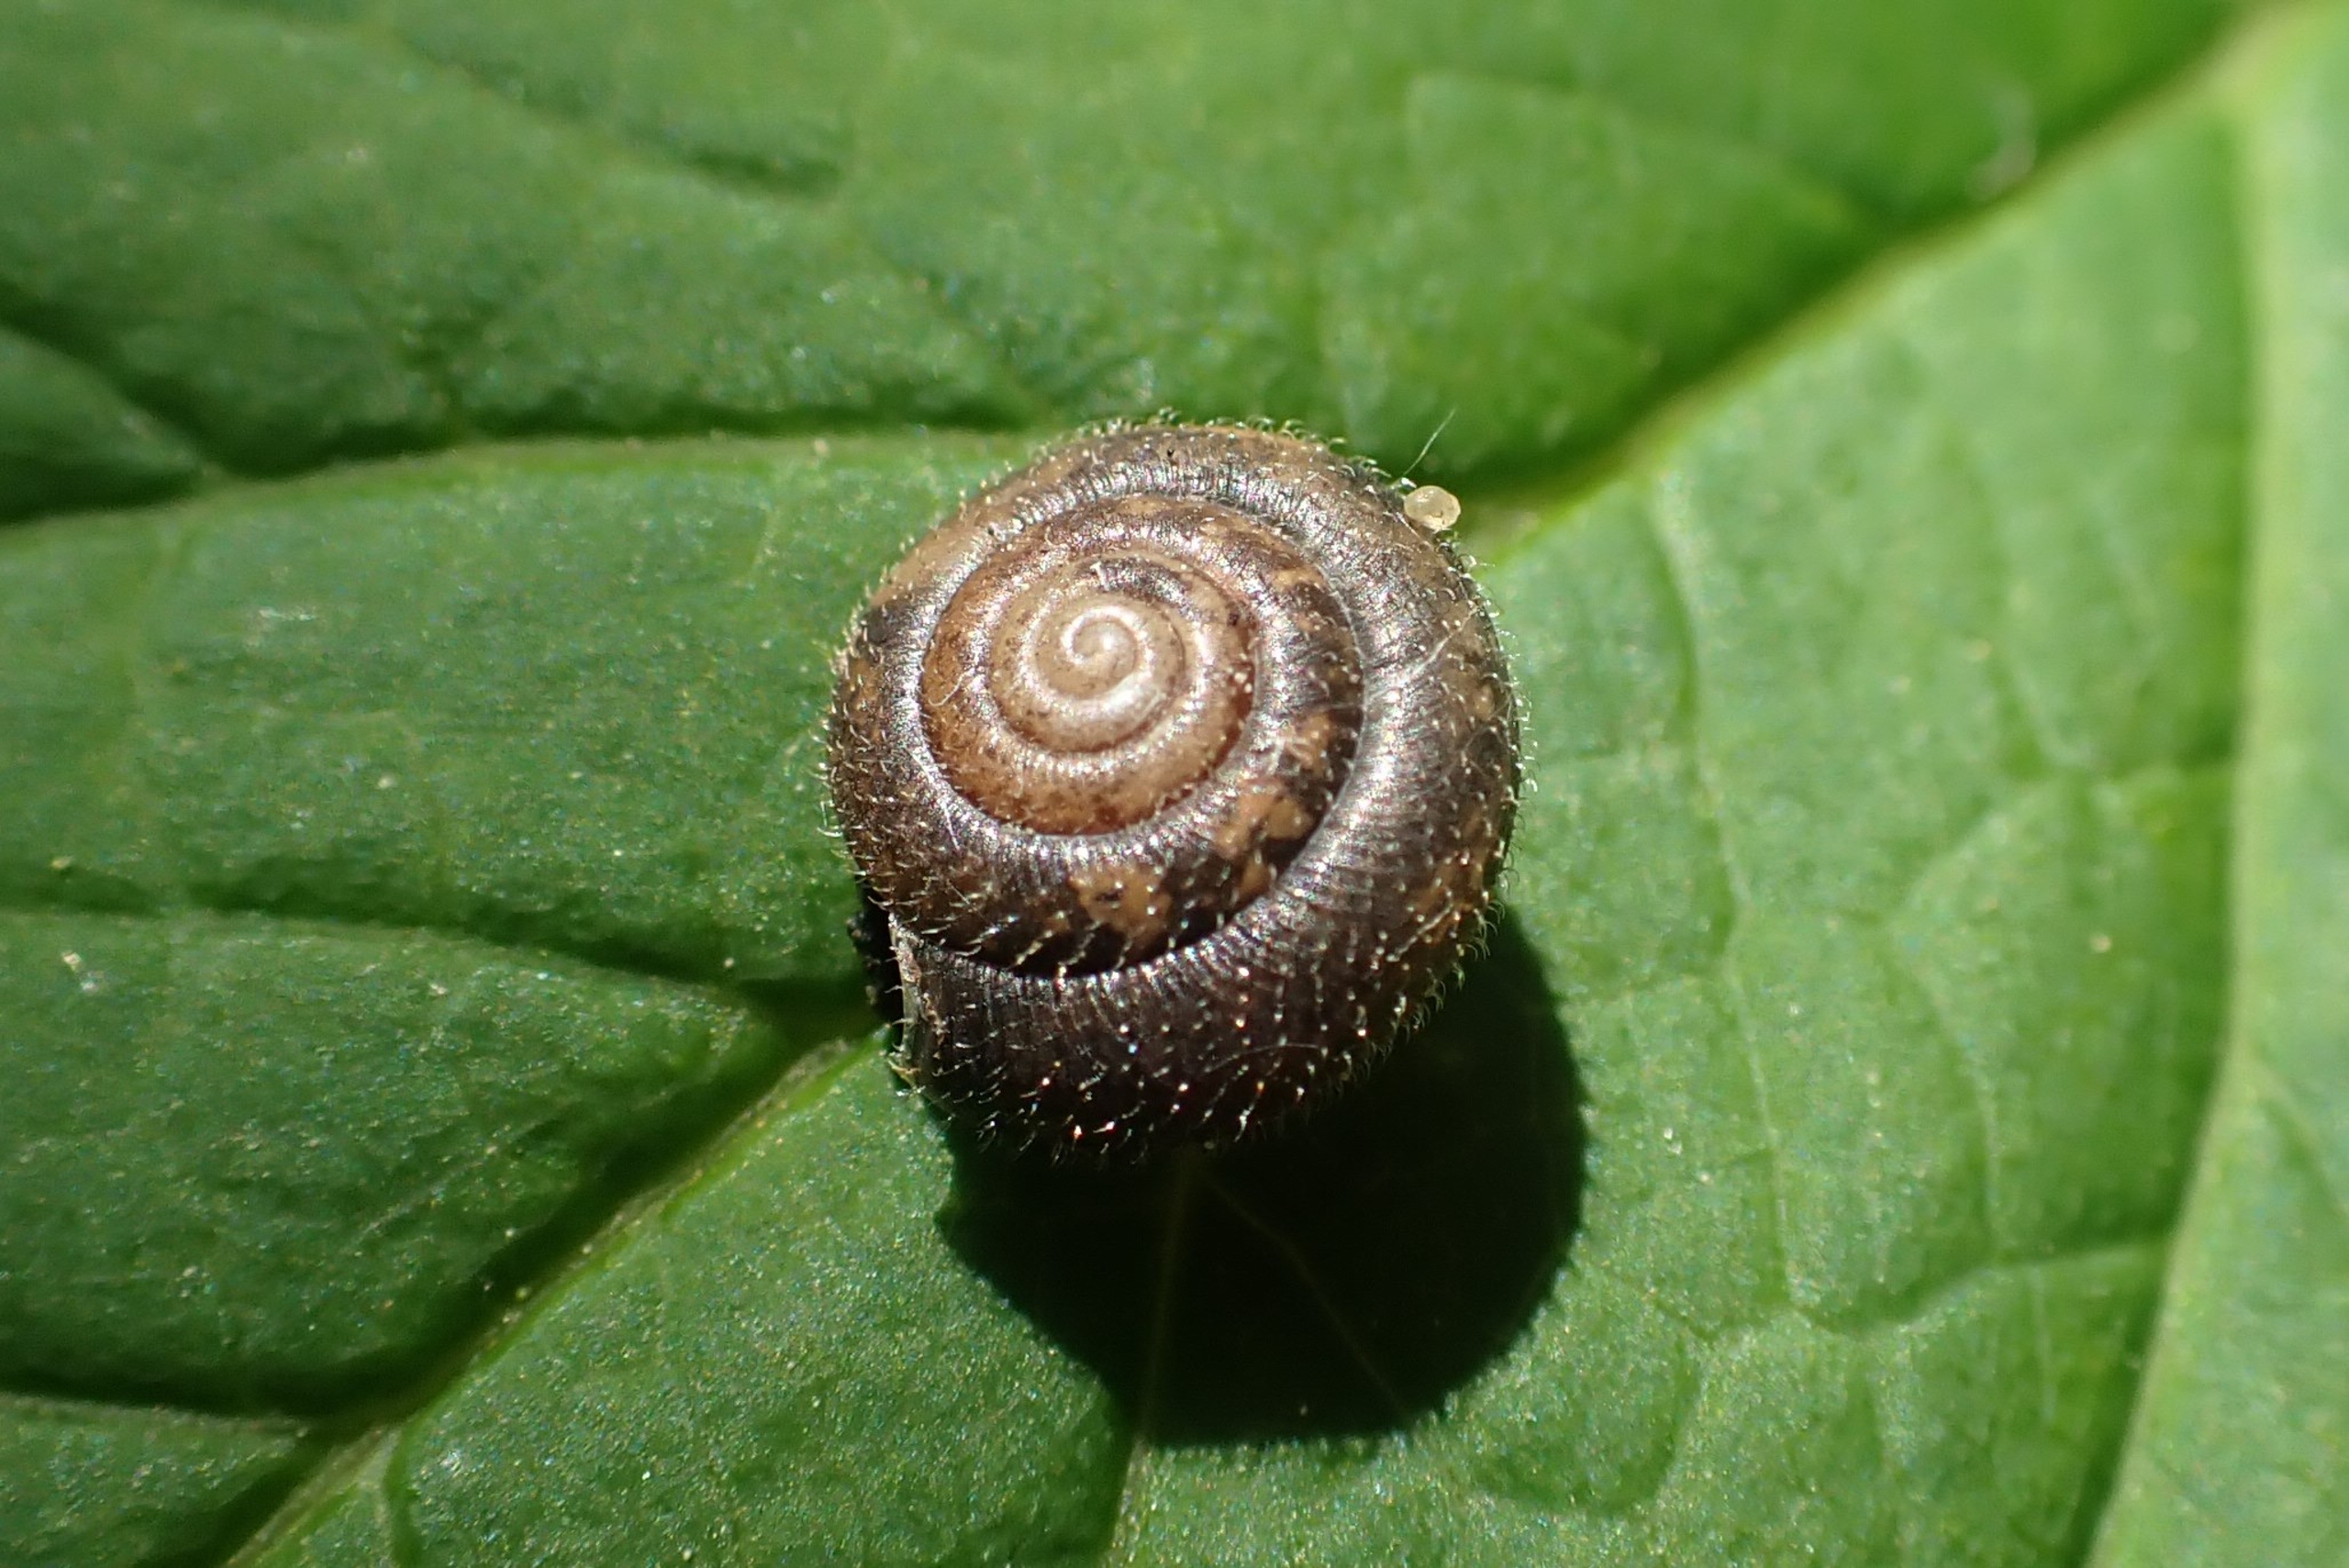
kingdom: Animalia
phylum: Mollusca
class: Gastropoda
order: Stylommatophora
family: Hygromiidae
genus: Trochulus
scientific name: Trochulus hispidus
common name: Håret snegl
